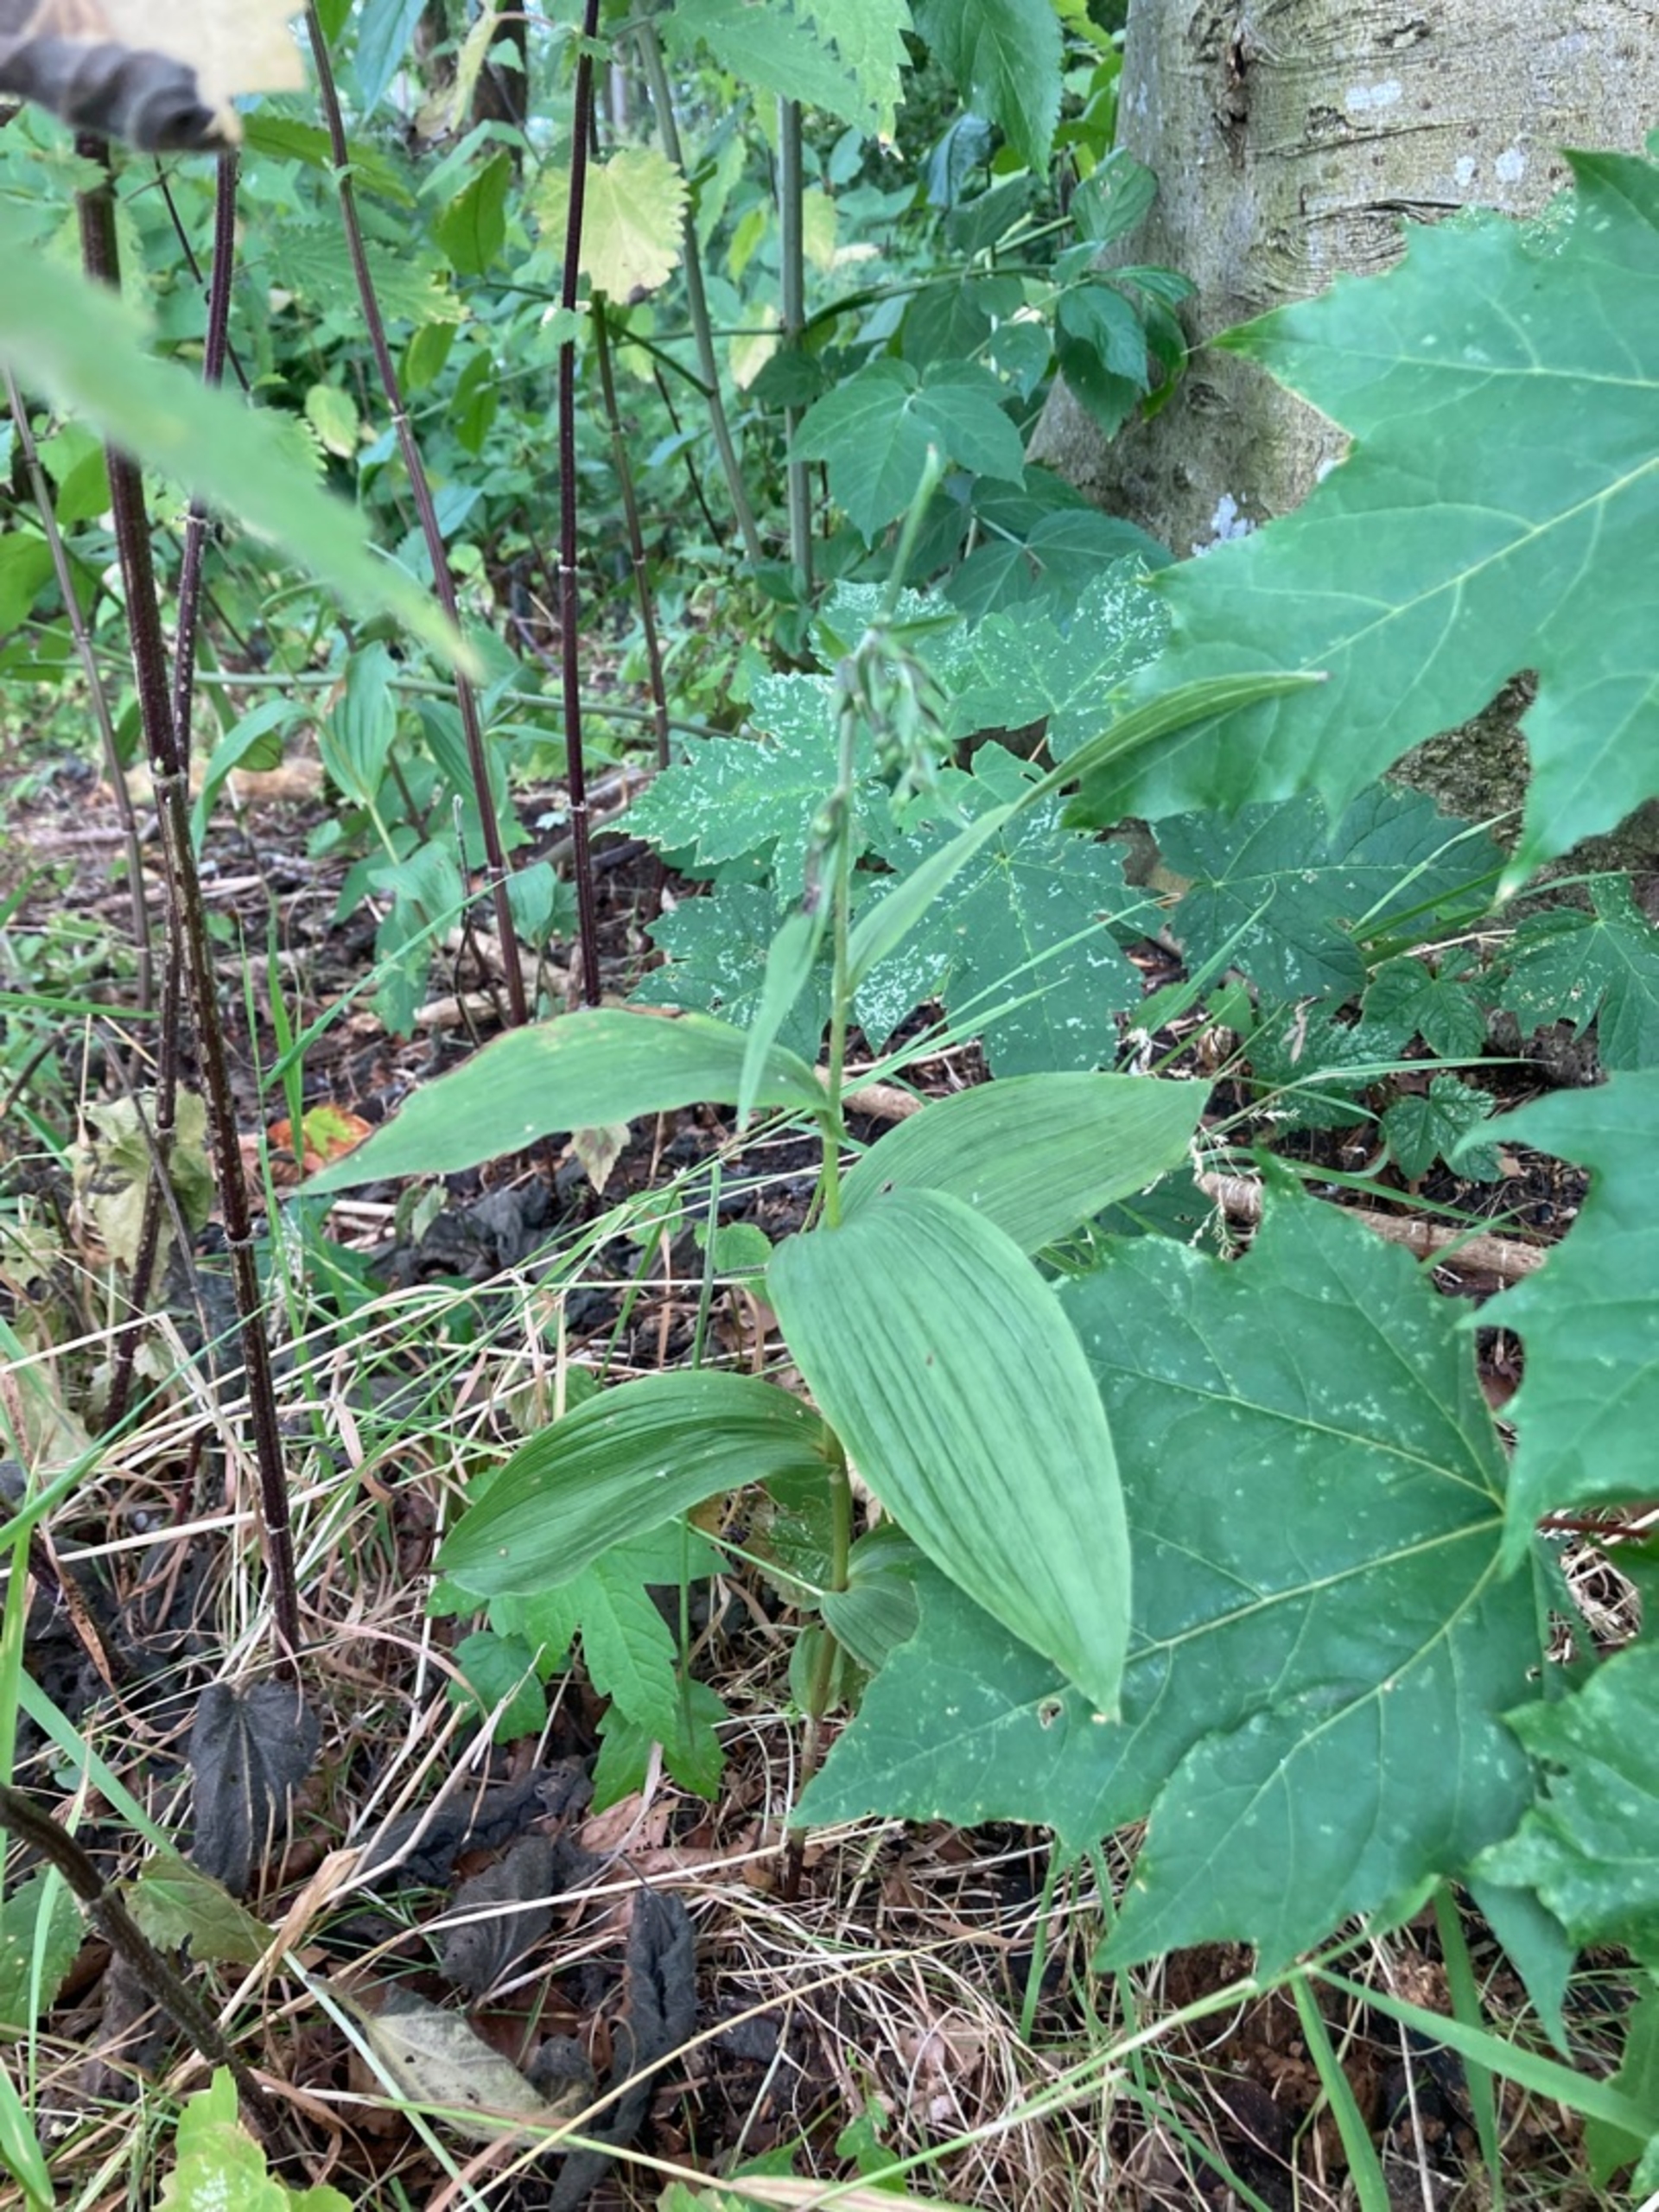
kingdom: Plantae
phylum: Tracheophyta
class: Liliopsida
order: Asparagales
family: Orchidaceae
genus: Epipactis
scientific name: Epipactis helleborine
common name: Skov-hullæbe
